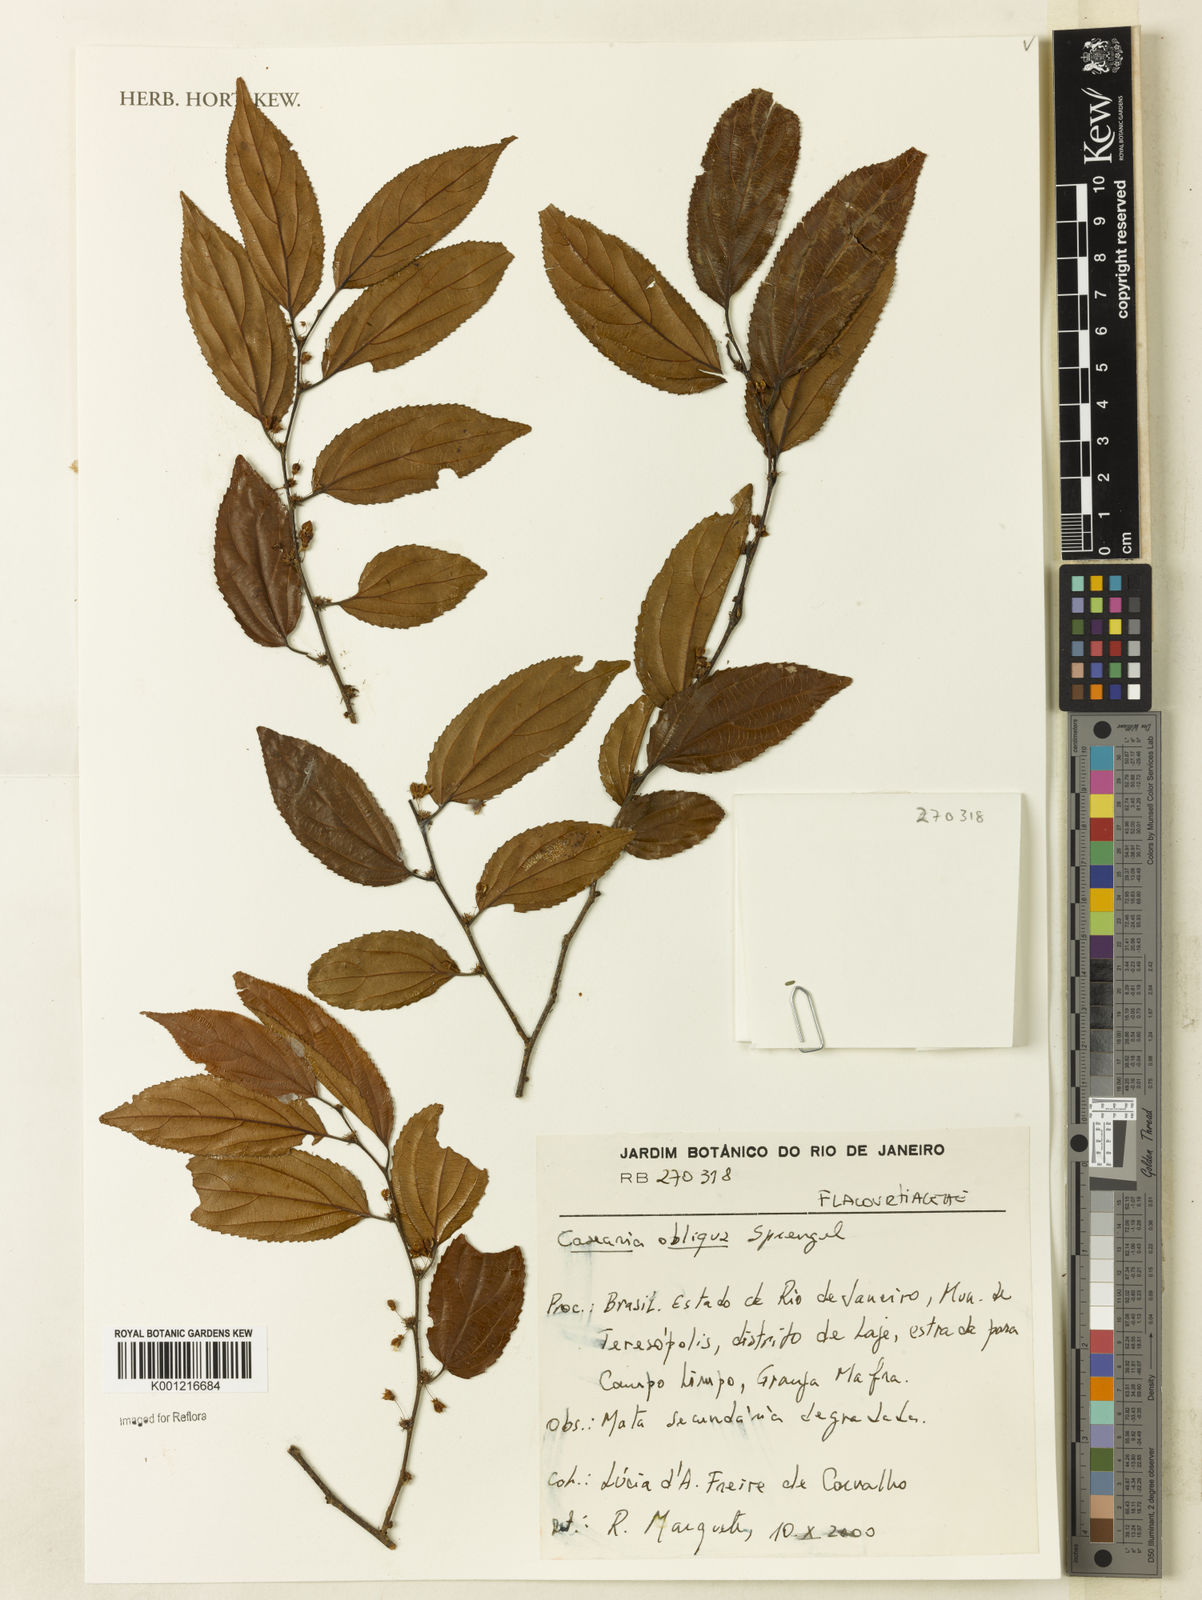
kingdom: Plantae
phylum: Tracheophyta
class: Magnoliopsida
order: Malpighiales
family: Salicaceae
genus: Casearia
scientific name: Casearia obliqua
